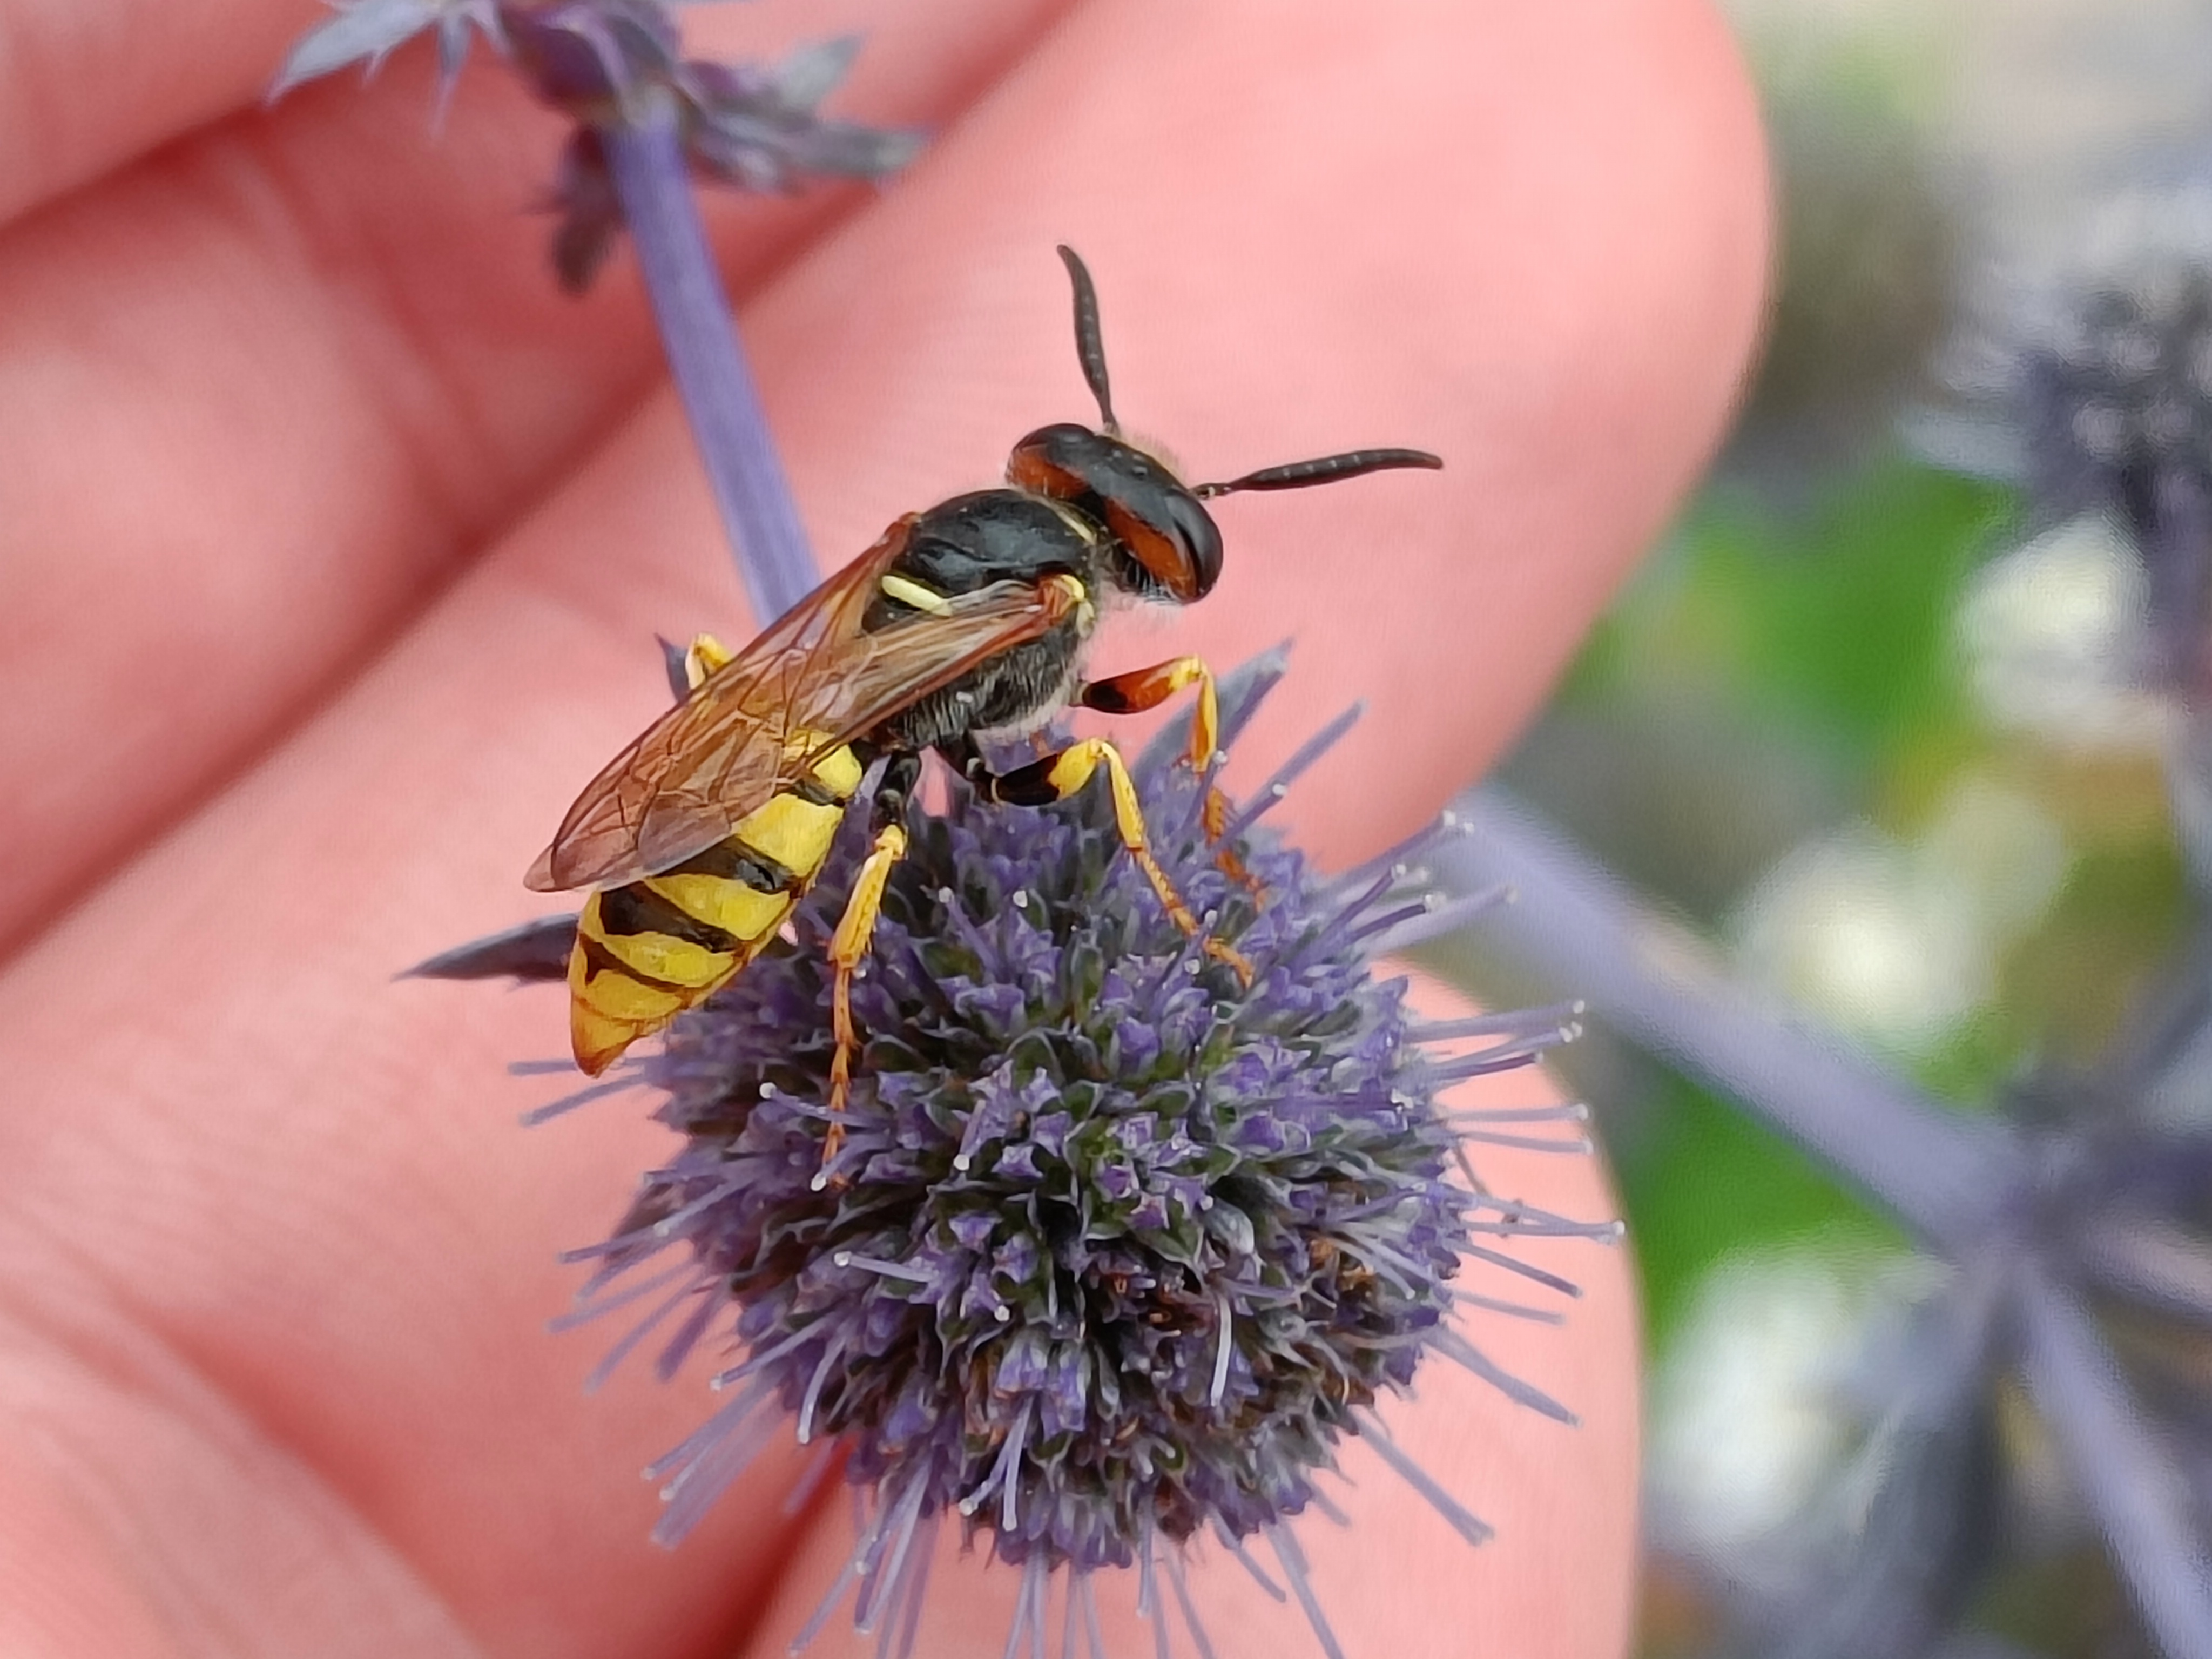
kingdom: Animalia
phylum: Arthropoda
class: Insecta
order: Hymenoptera
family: Crabronidae
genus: Philanthus
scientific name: Philanthus triangulum
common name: Biulv
